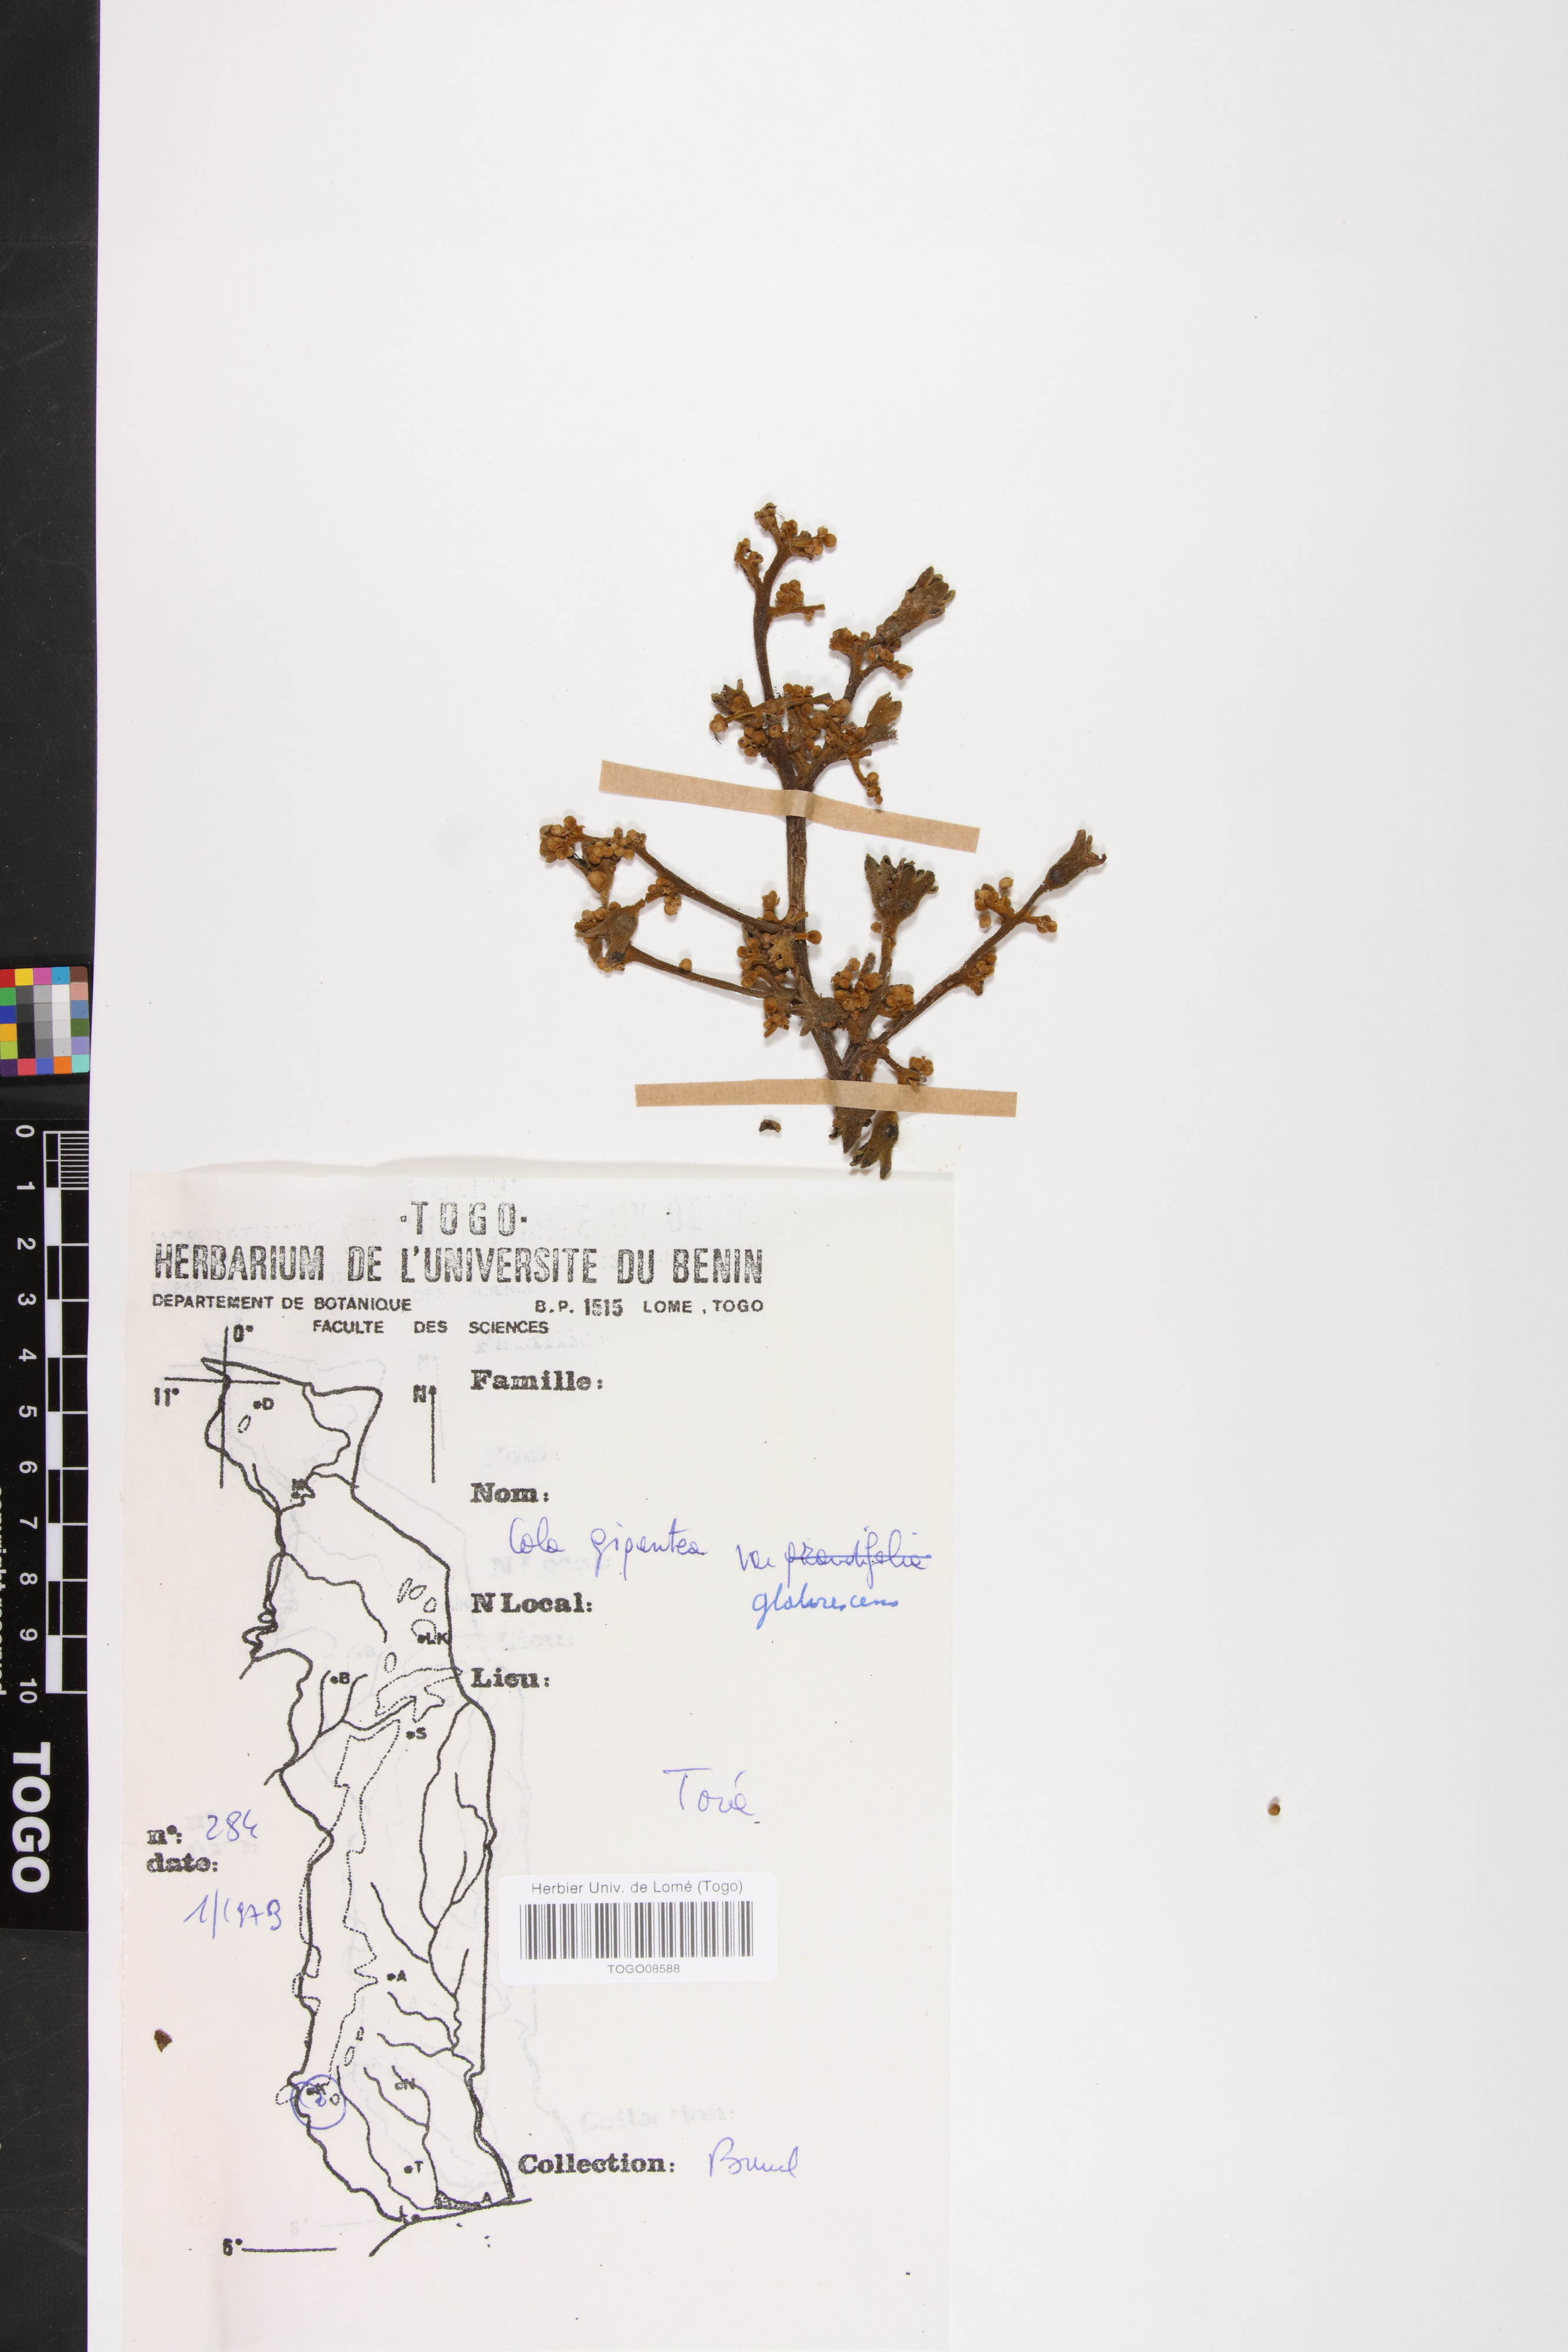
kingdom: Plantae
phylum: Tracheophyta
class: Magnoliopsida
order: Malvales
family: Malvaceae
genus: Cola
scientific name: Cola gigantea
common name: Giant cola
